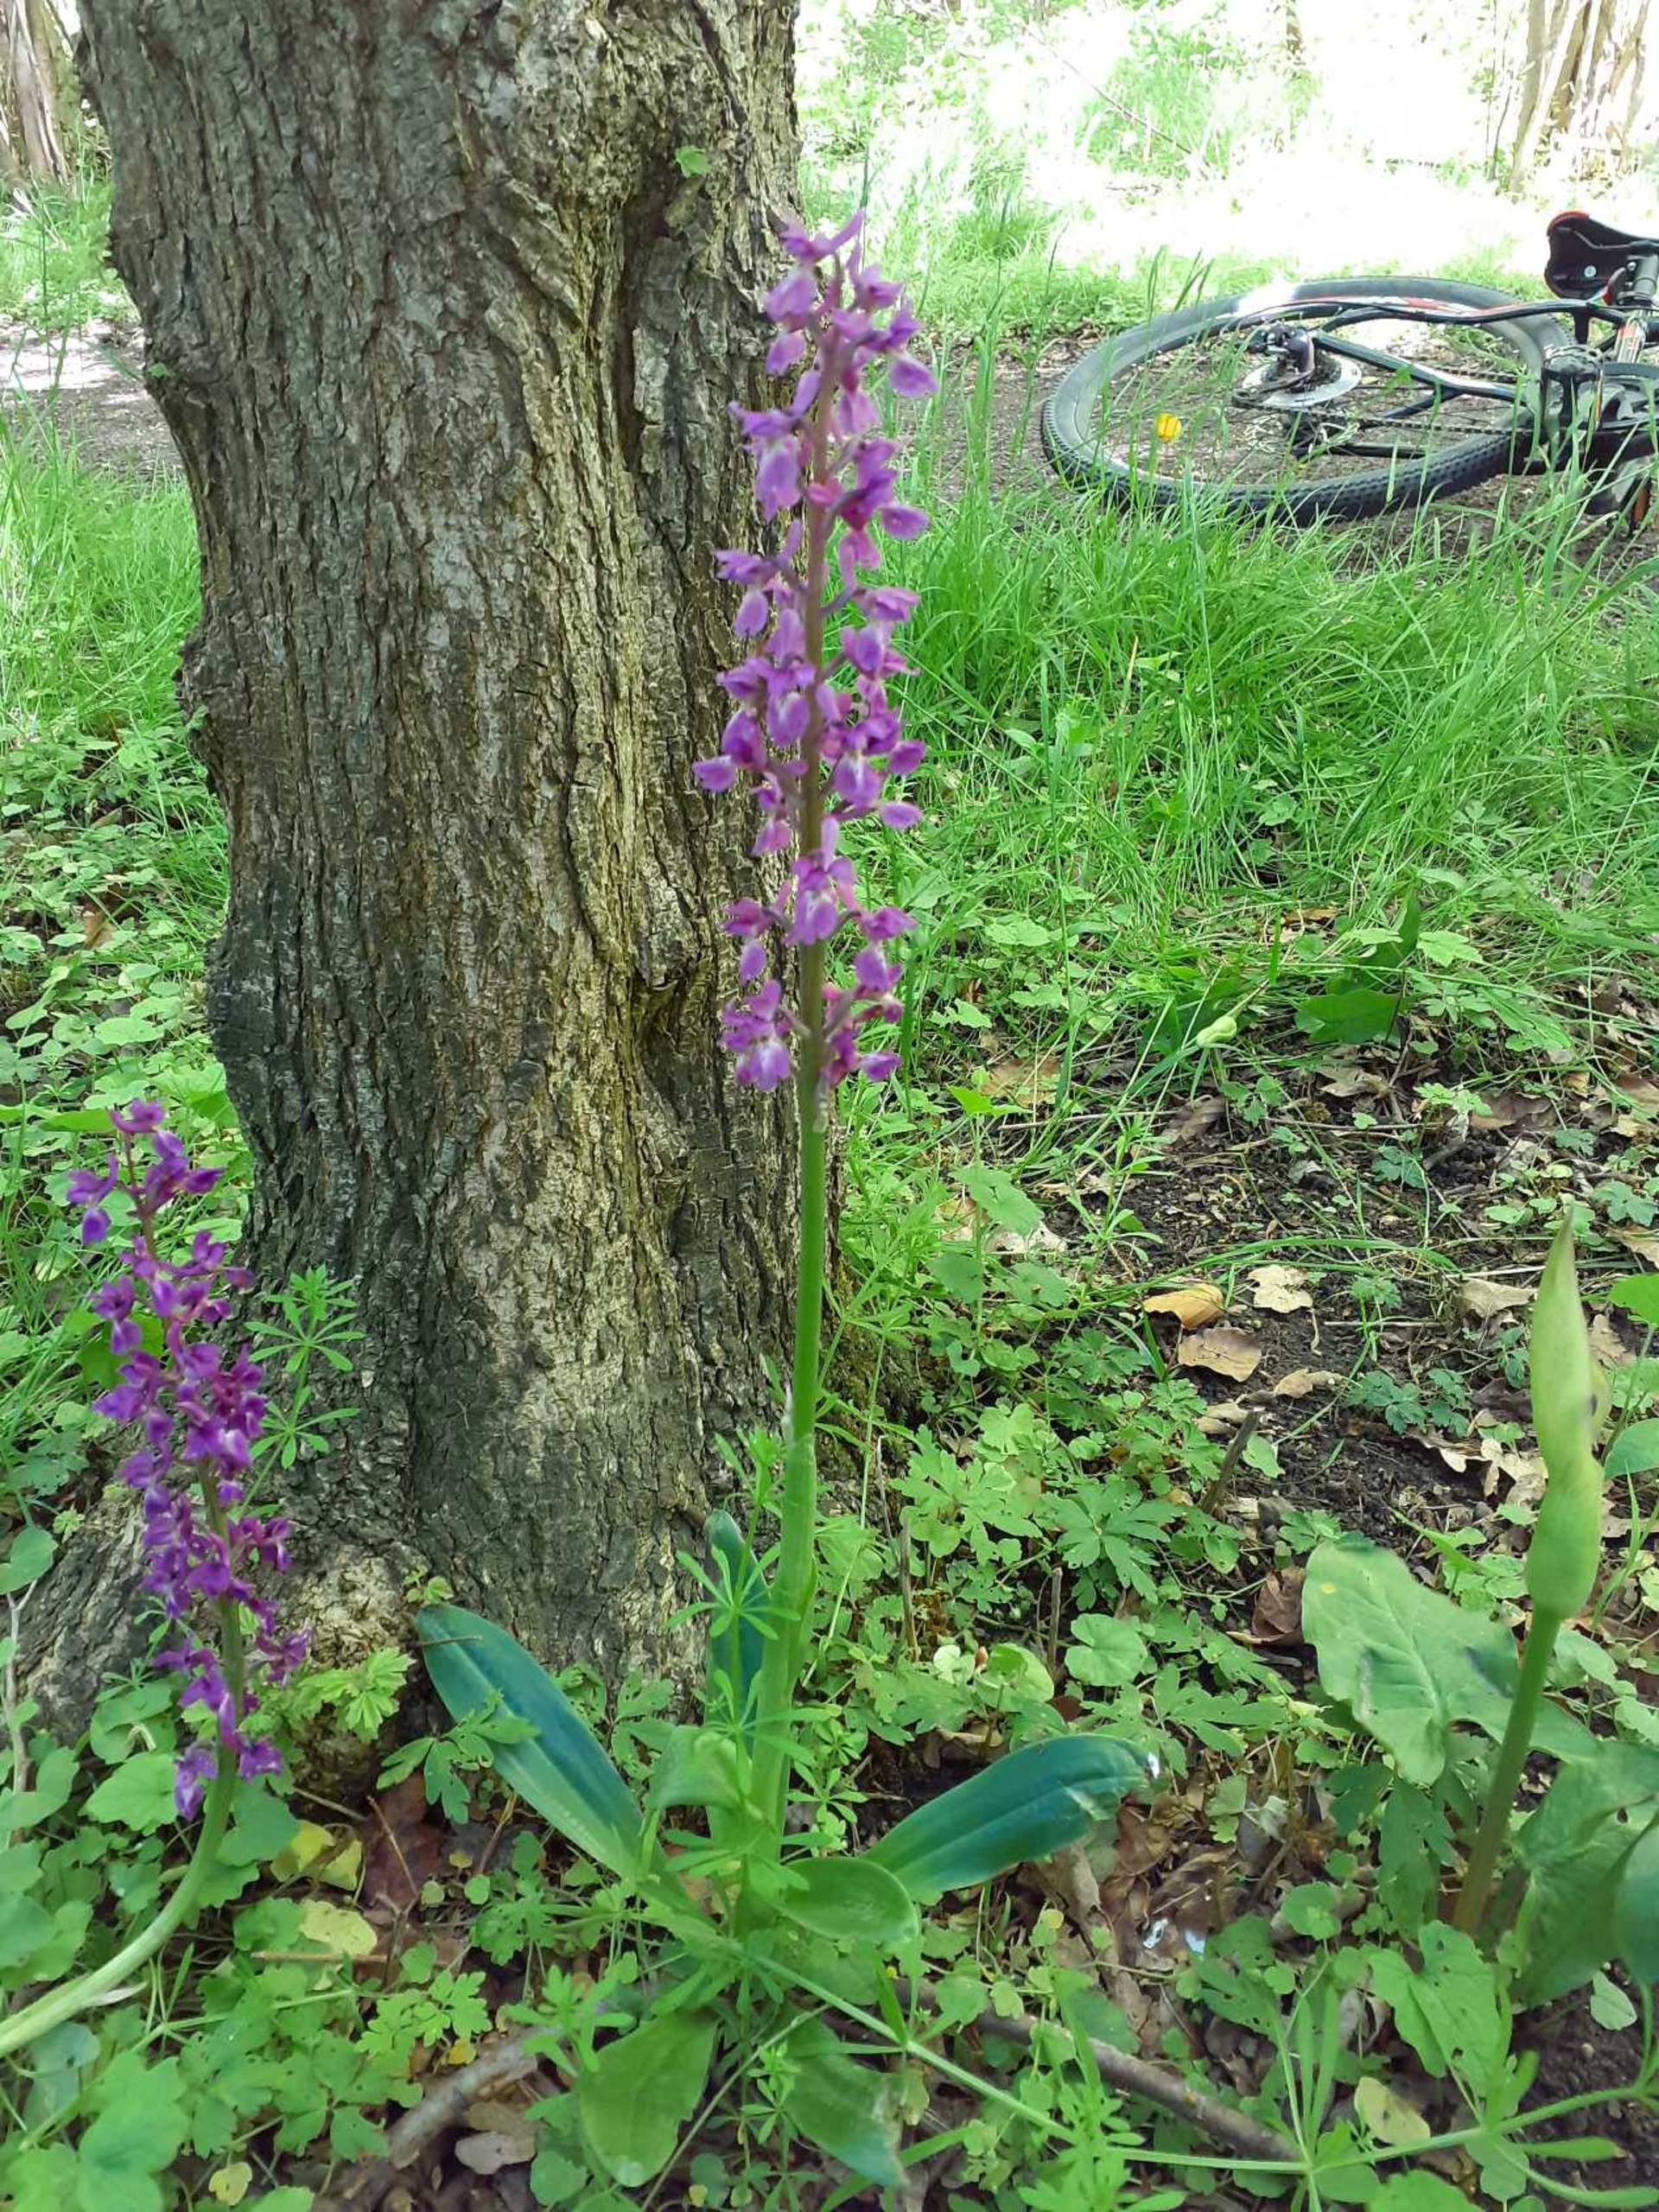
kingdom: Plantae
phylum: Tracheophyta
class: Liliopsida
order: Asparagales
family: Orchidaceae
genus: Orchis
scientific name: Orchis mascula
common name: Tyndakset gøgeurt
